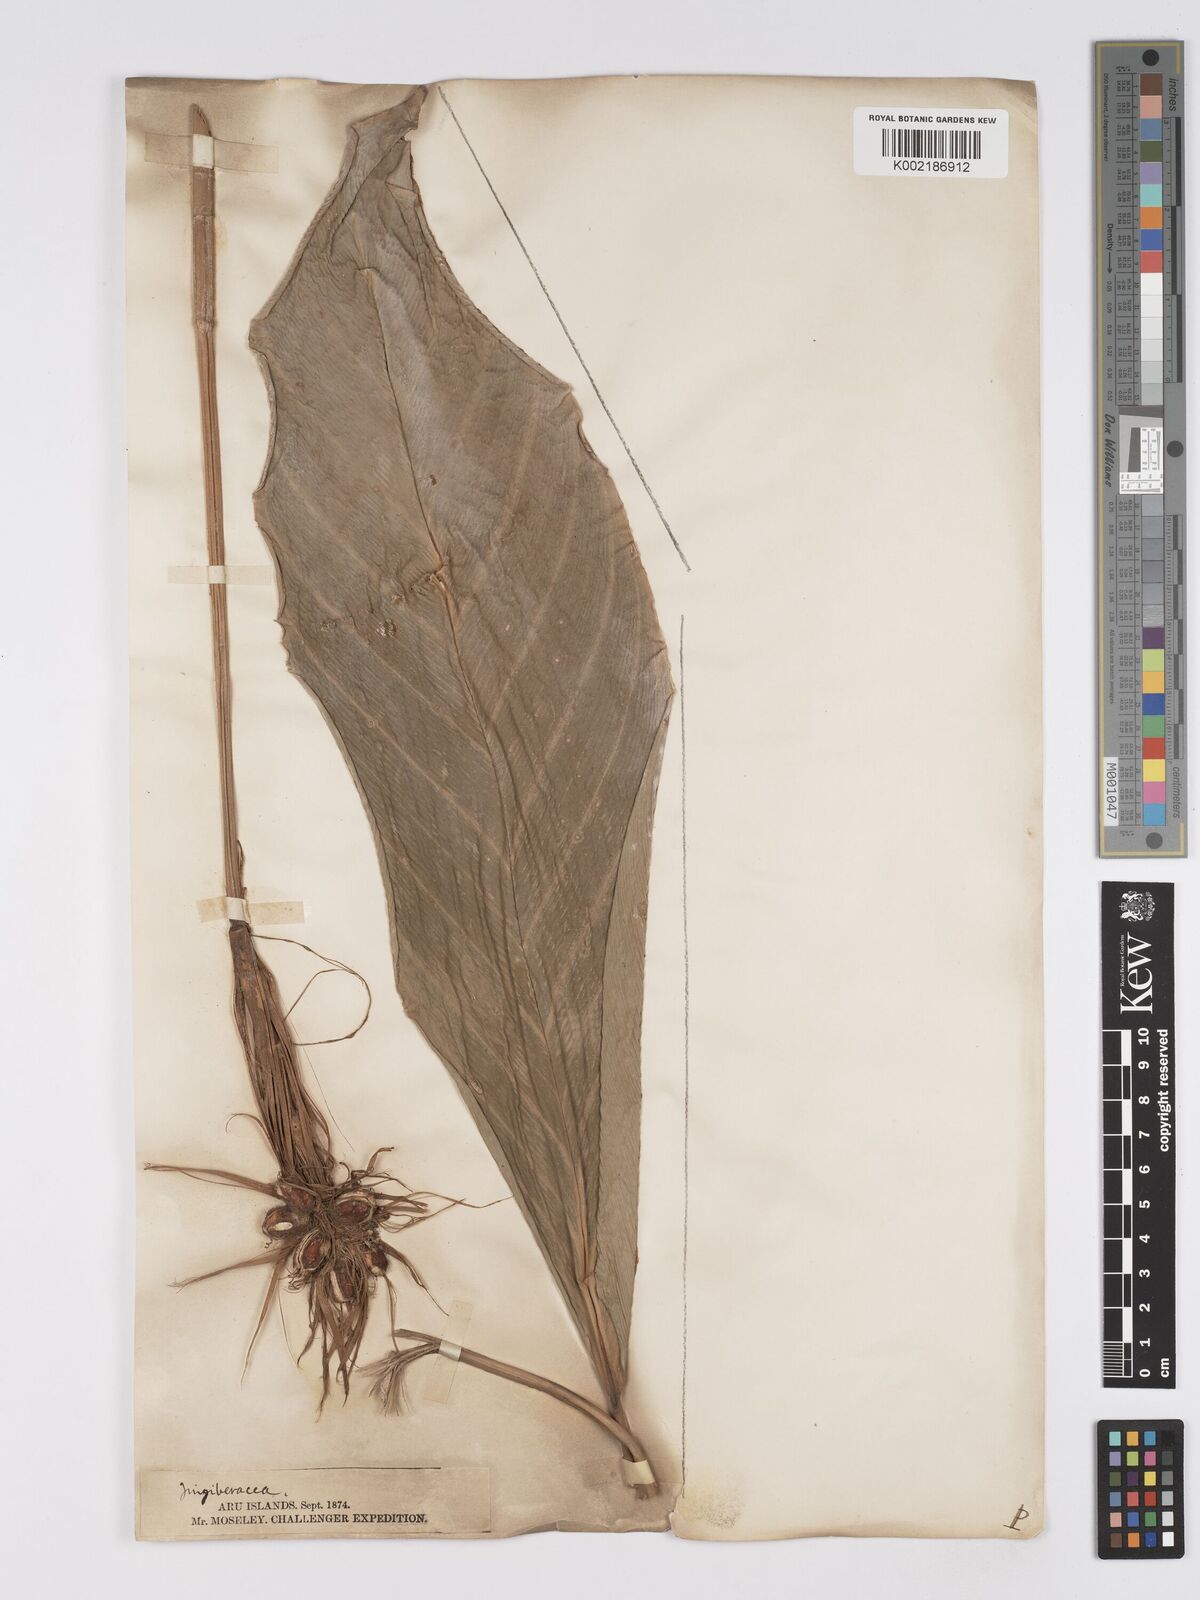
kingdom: Plantae
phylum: Tracheophyta
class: Liliopsida
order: Zingiberales
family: Marantaceae
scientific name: Marantaceae
